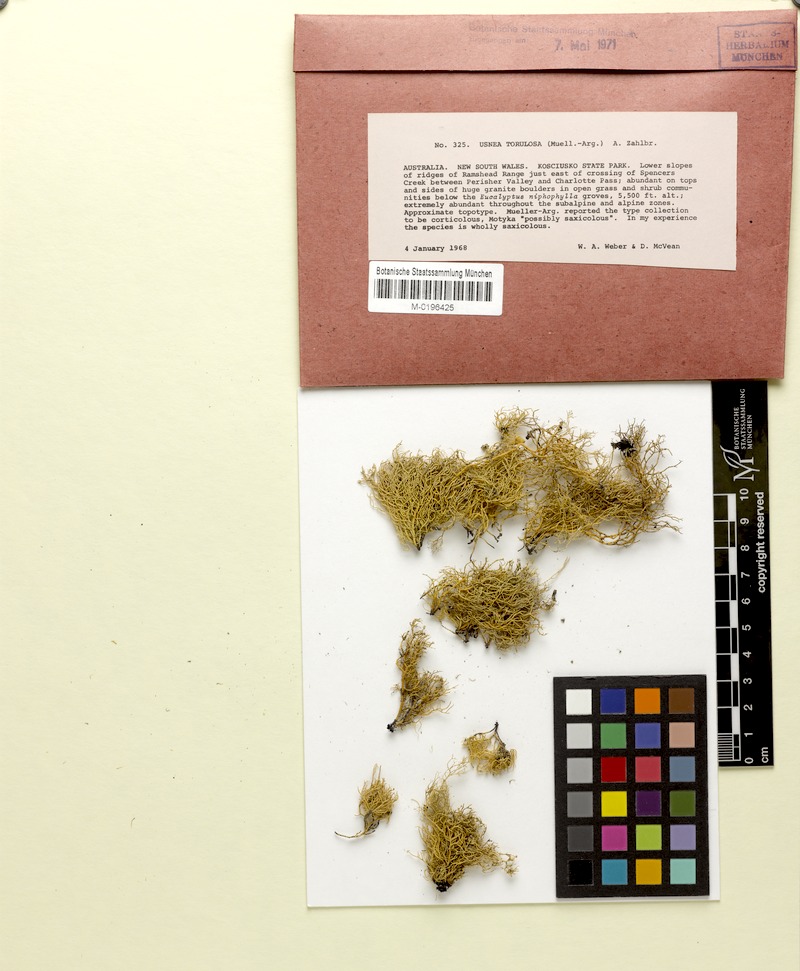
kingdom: Fungi
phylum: Ascomycota
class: Lecanoromycetes
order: Lecanorales
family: Parmeliaceae
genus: Usnea
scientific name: Usnea torulosa
